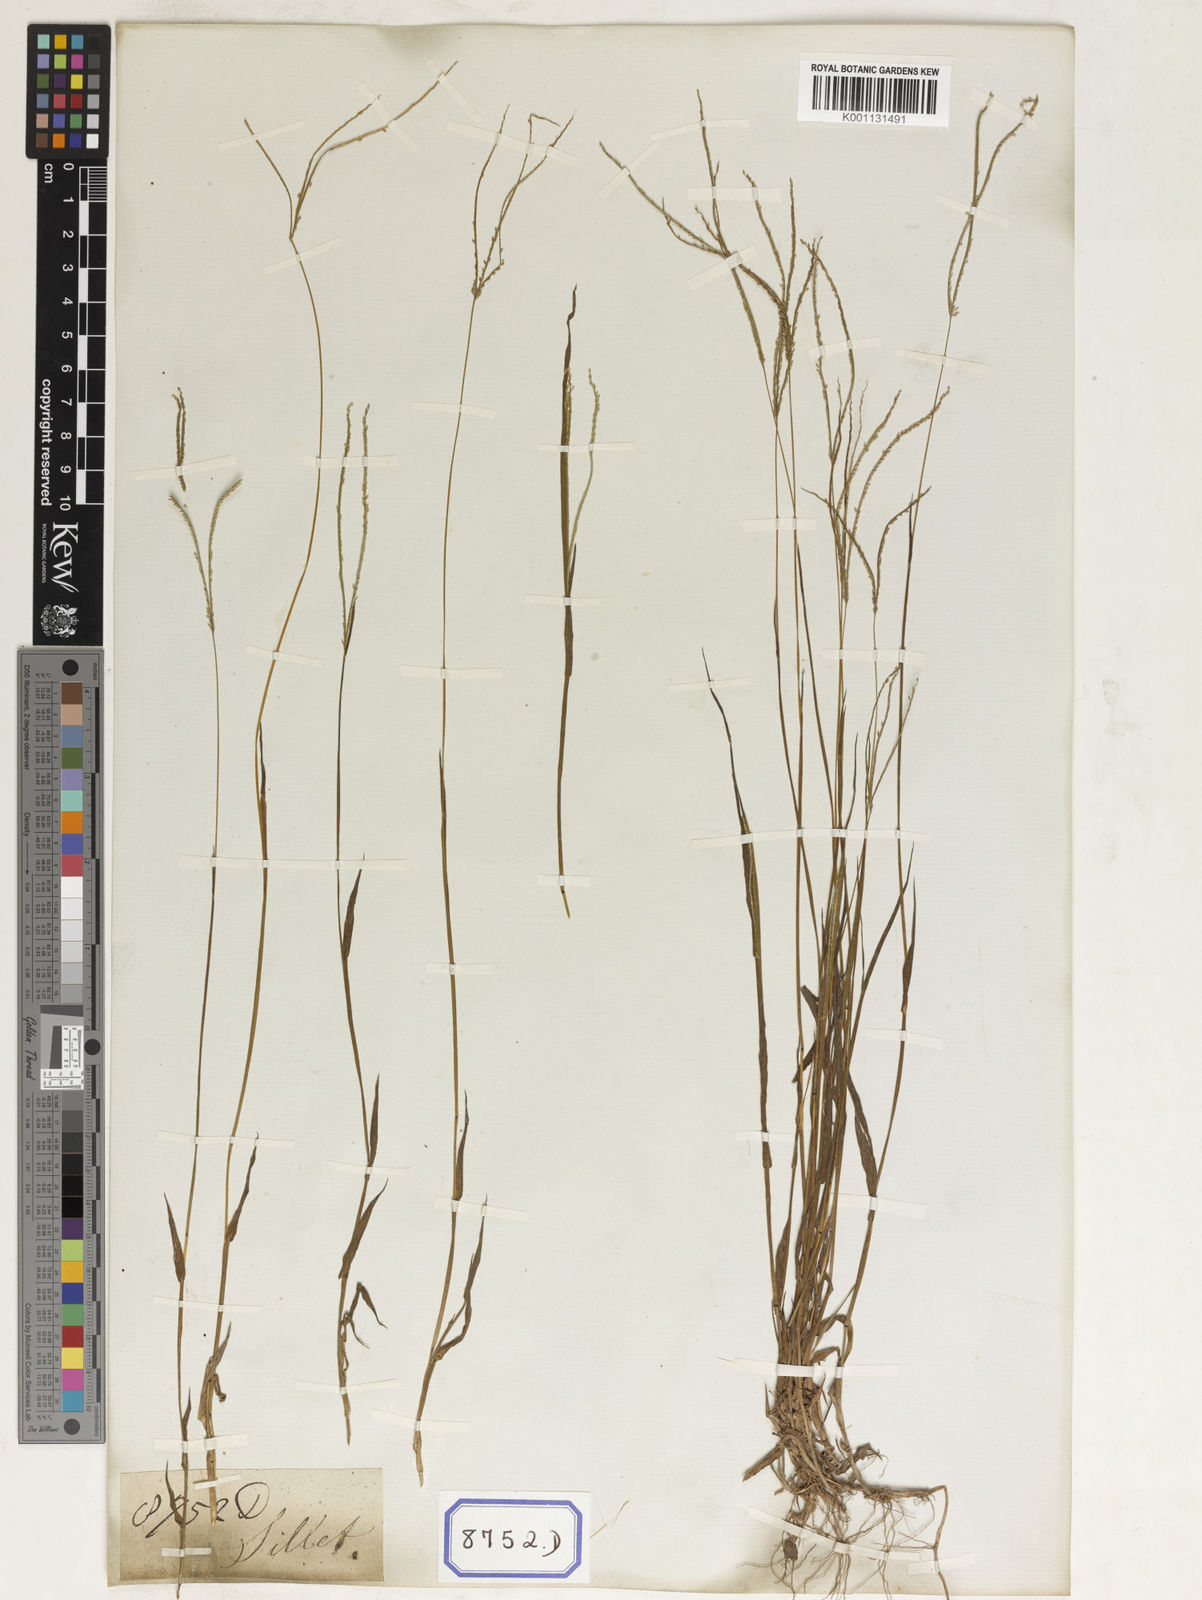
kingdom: Plantae
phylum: Tracheophyta
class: Liliopsida
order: Poales
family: Poaceae
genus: Paspalum
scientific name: Paspalum
